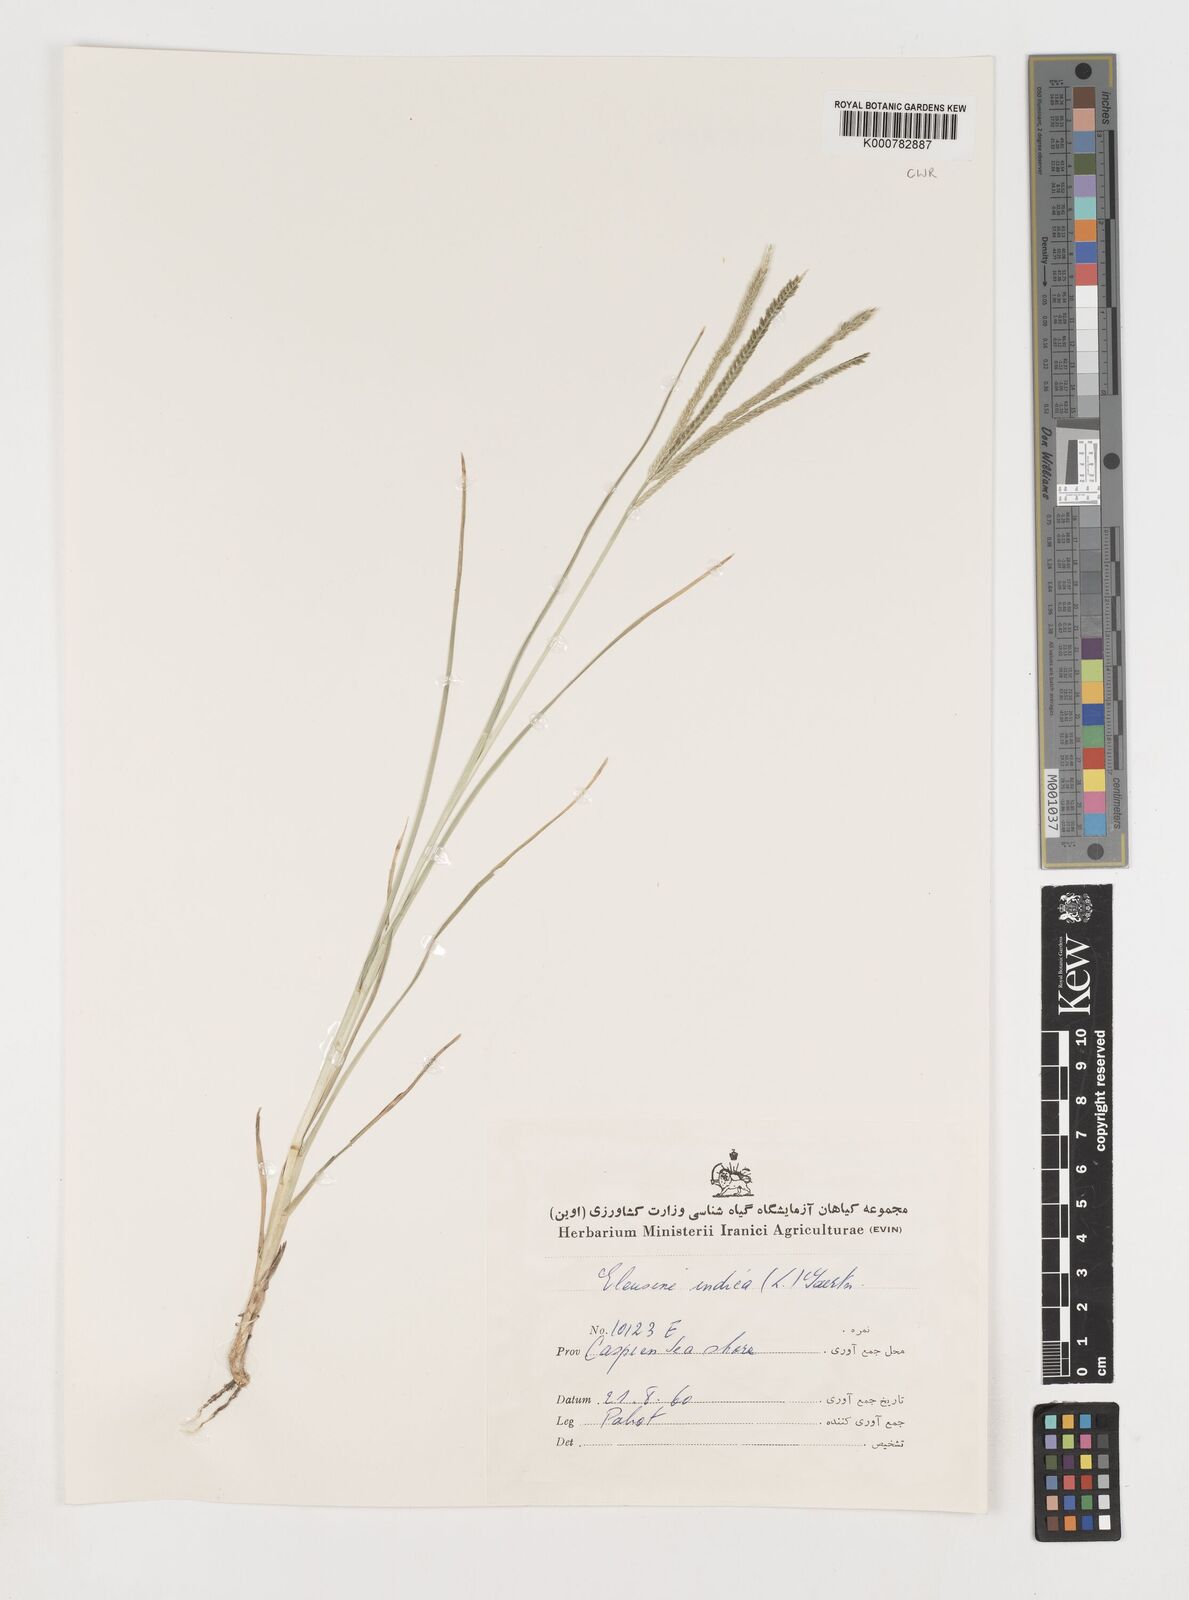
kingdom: Plantae
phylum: Tracheophyta
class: Liliopsida
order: Poales
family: Poaceae
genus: Eleusine
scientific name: Eleusine indica
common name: Yard-grass
